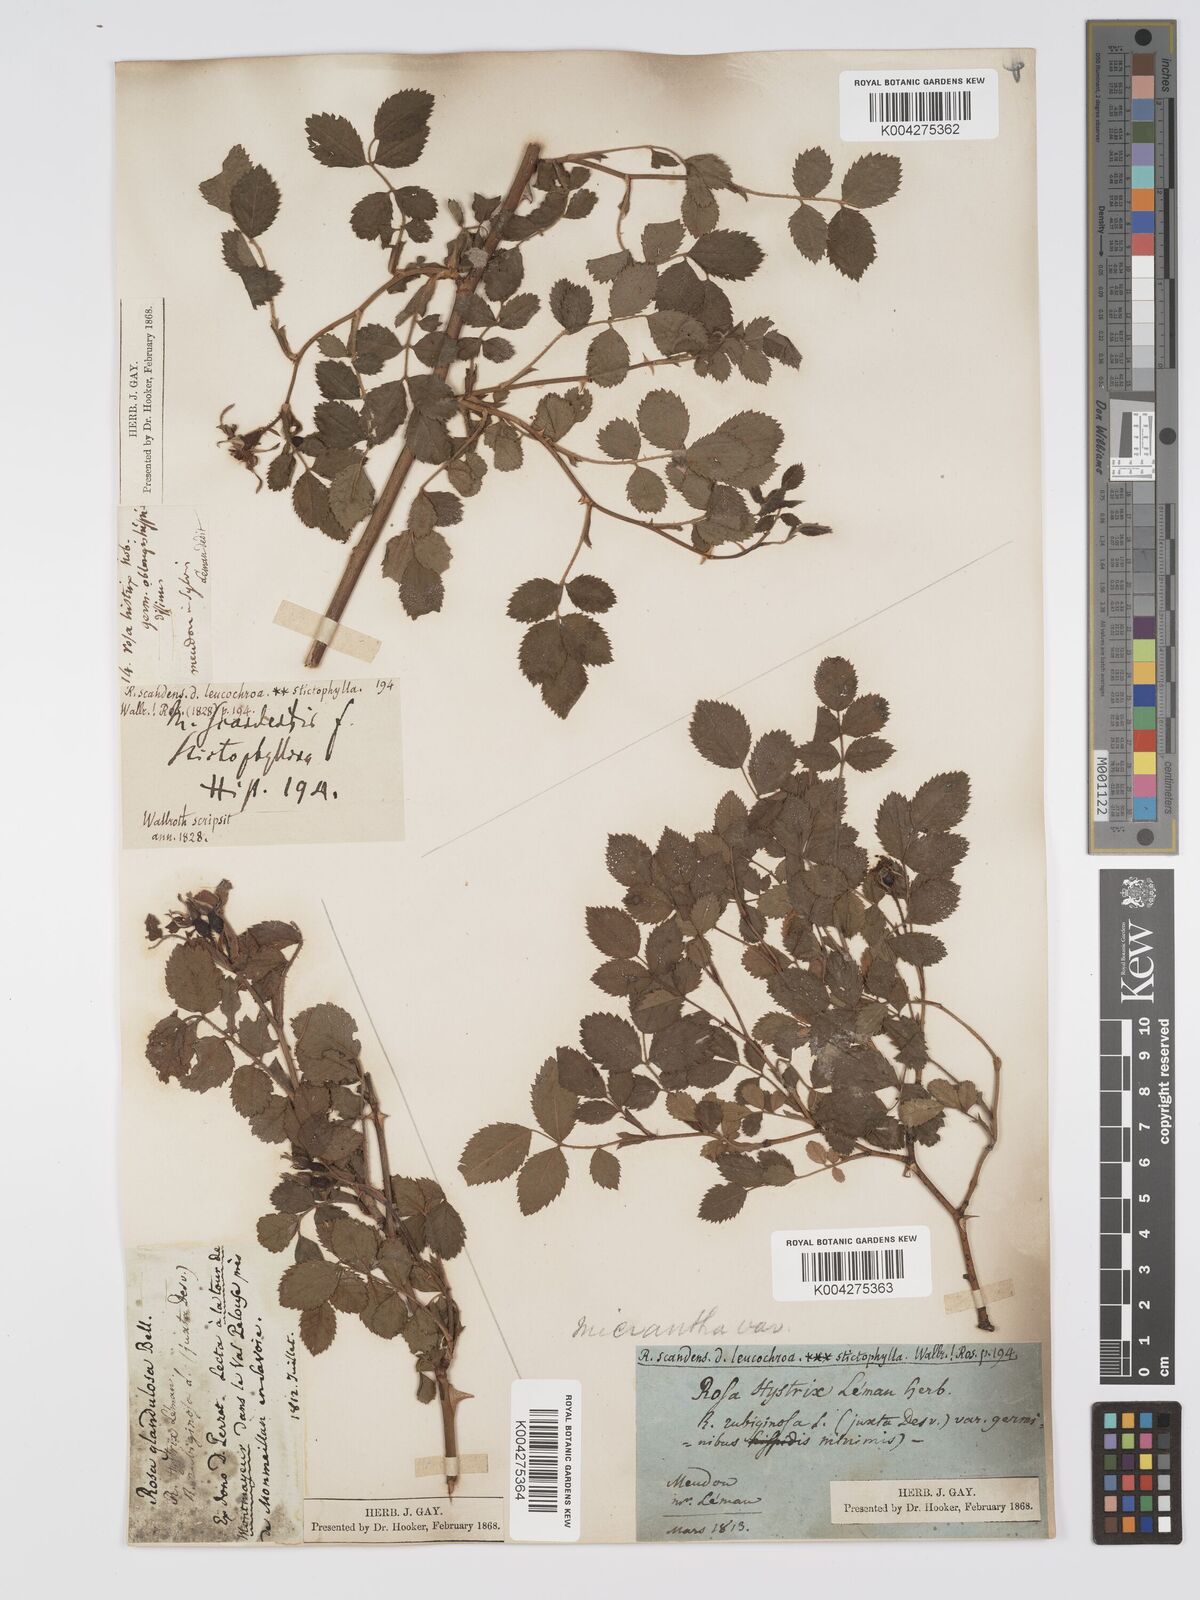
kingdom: Plantae
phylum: Tracheophyta
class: Magnoliopsida
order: Rosales
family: Rosaceae
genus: Rosa
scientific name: Rosa laevigata
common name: Cherokee rose
